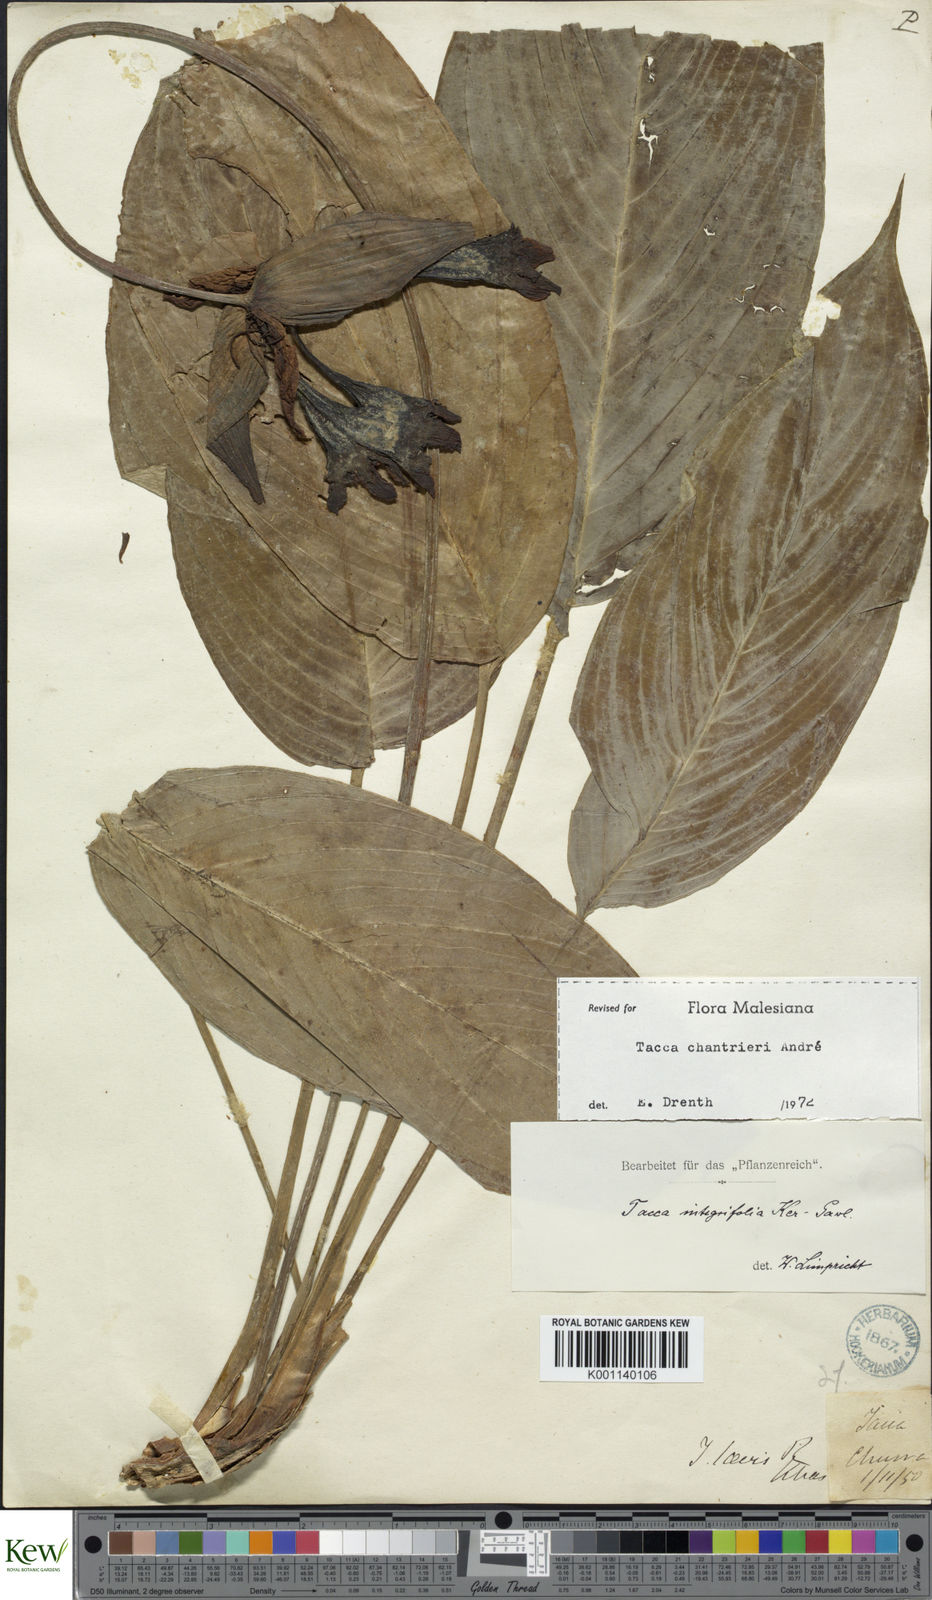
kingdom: Plantae
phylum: Tracheophyta
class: Liliopsida
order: Dioscoreales
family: Dioscoreaceae
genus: Tacca
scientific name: Tacca
